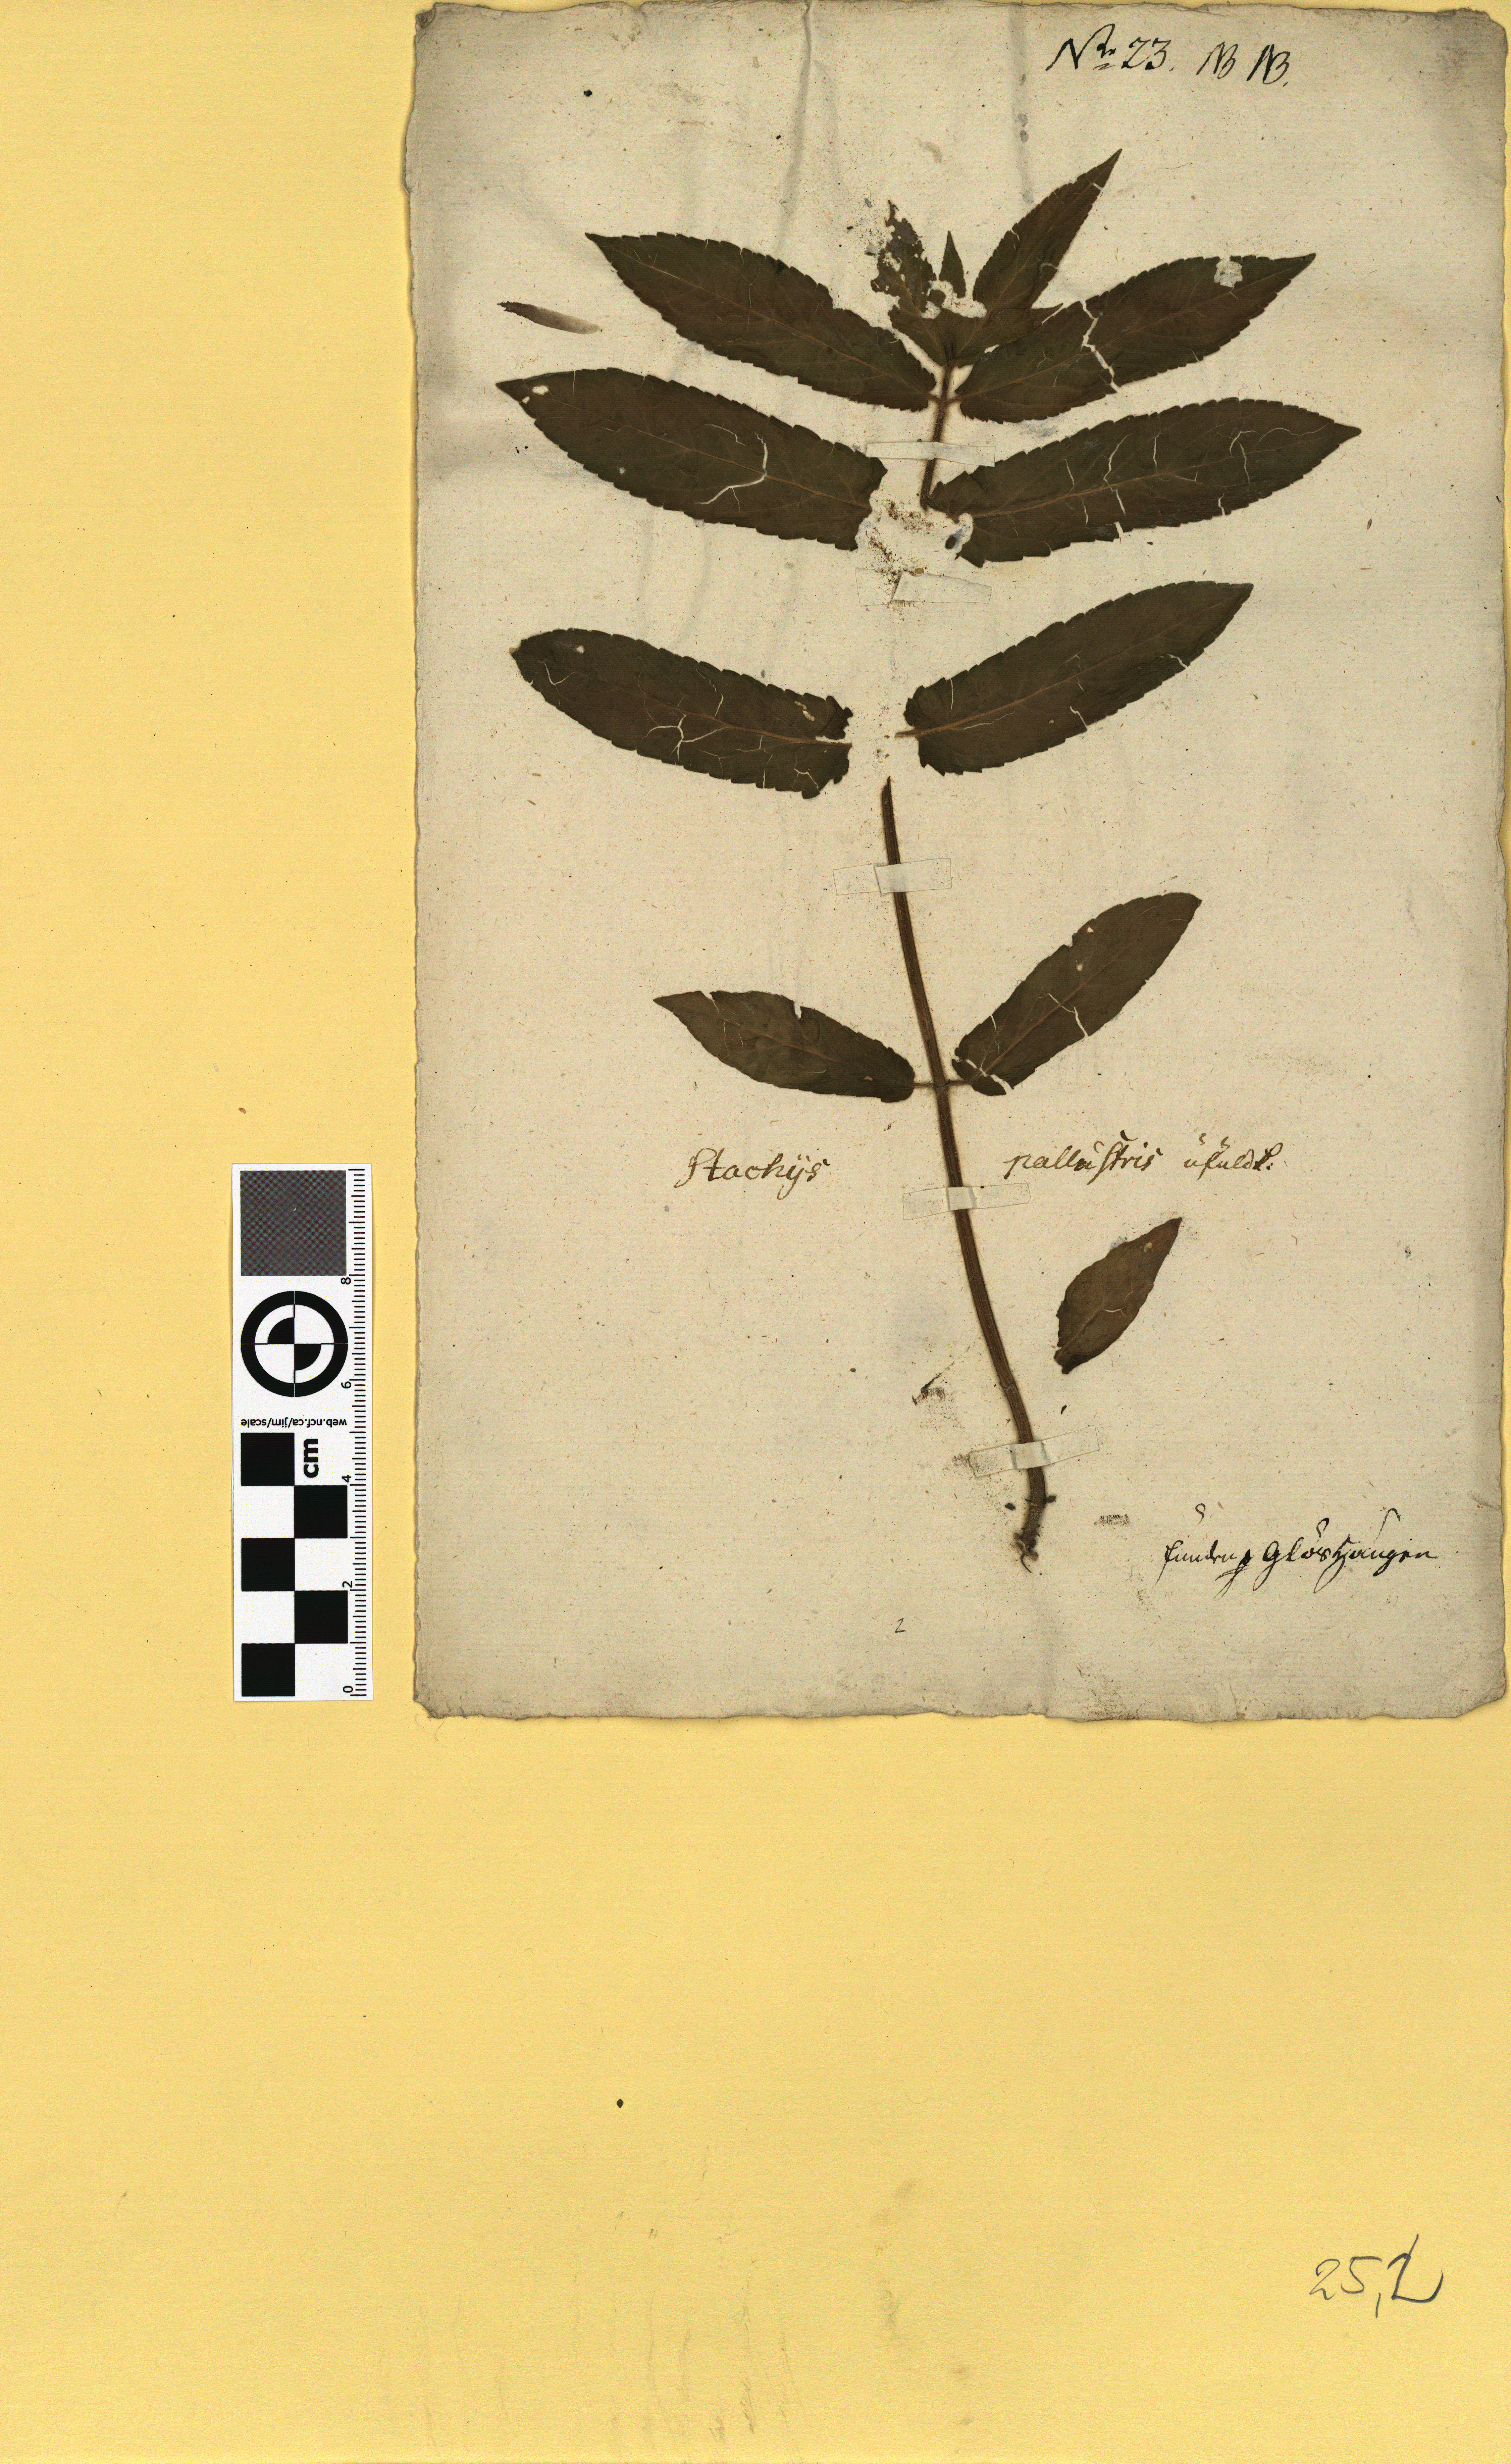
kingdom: Plantae
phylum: Tracheophyta
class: Magnoliopsida
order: Lamiales
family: Lamiaceae
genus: Stachys
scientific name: Stachys palustris
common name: Marsh woundwort
